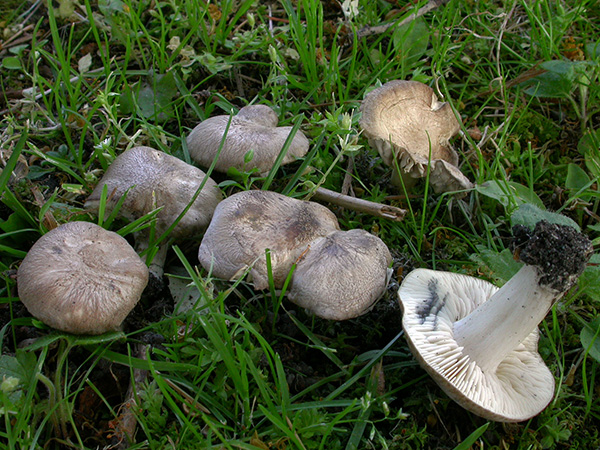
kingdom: Fungi
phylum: Basidiomycota
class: Agaricomycetes
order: Agaricales
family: Lyophyllaceae
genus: Lyophyllum
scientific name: Lyophyllum paelochroum
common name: blånende gråblad
